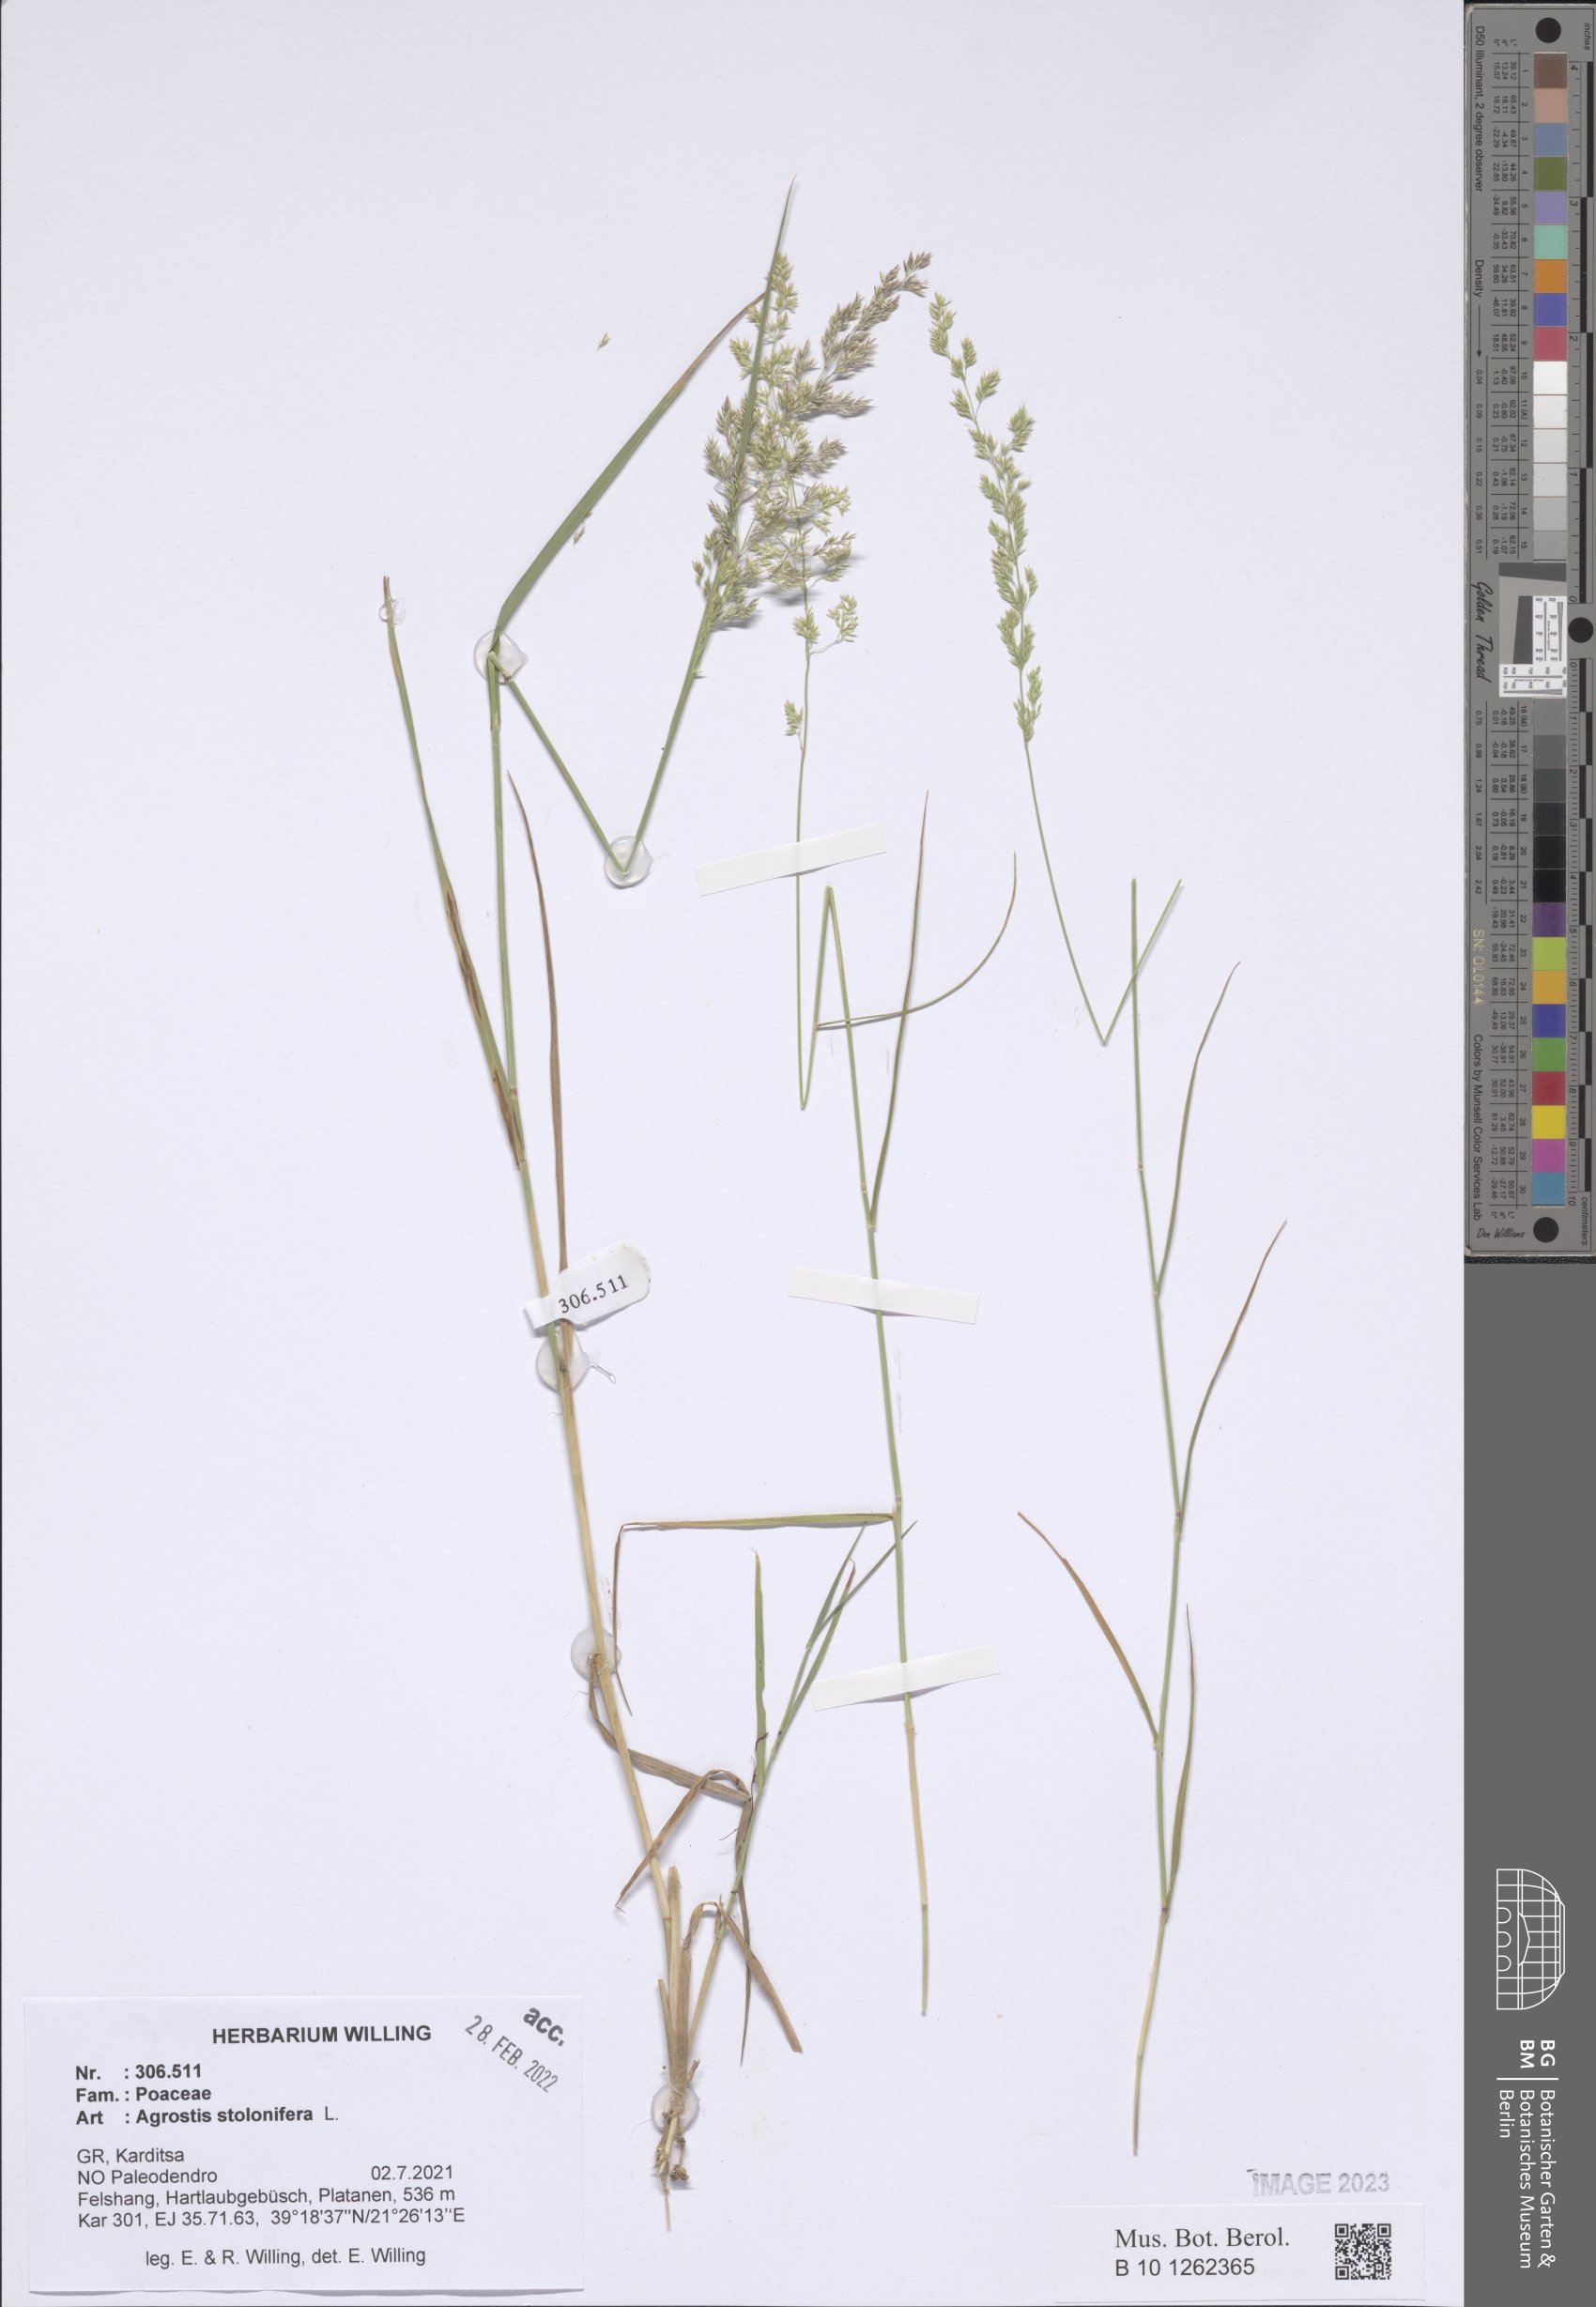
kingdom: Plantae
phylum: Tracheophyta
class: Liliopsida
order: Poales
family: Poaceae
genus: Agrostis
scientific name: Agrostis stolonifera
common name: Creeping bentgrass
